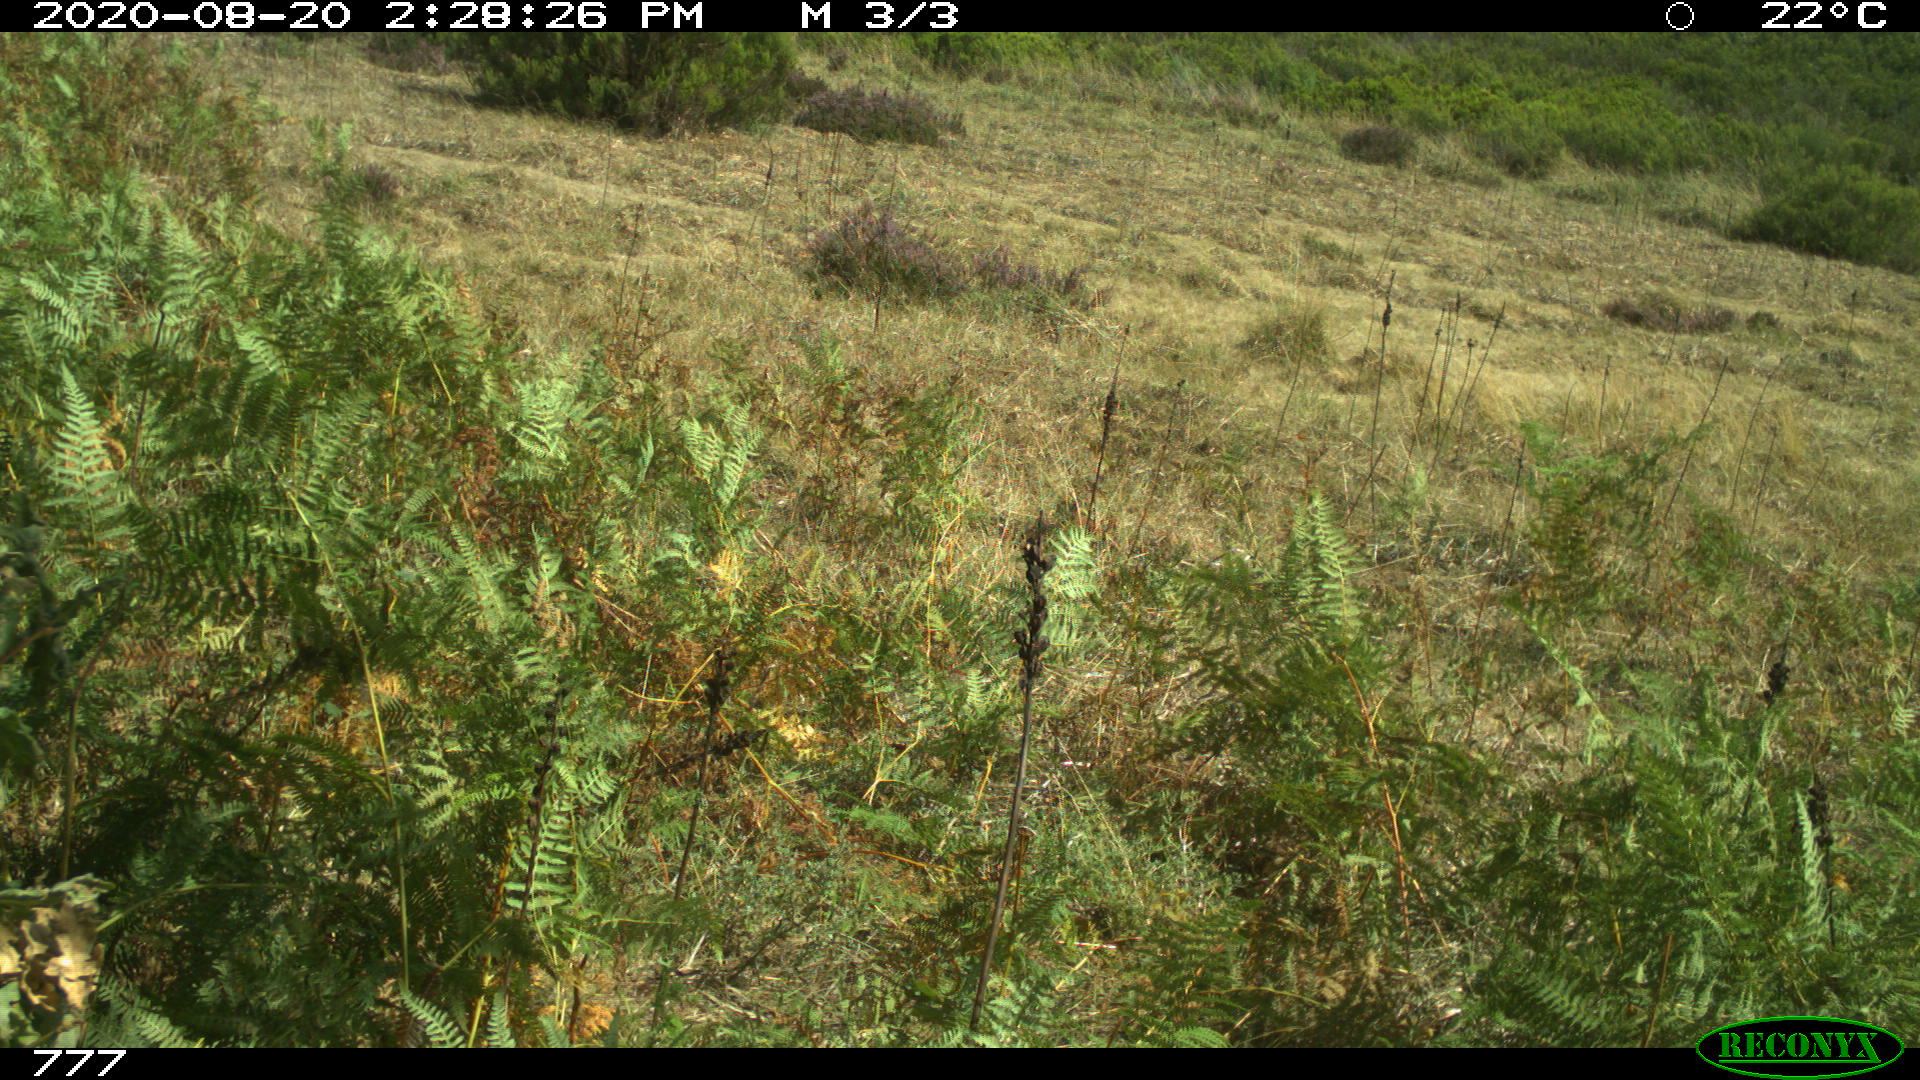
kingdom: Animalia
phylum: Chordata
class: Mammalia
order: Artiodactyla
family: Suidae
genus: Sus
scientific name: Sus scrofa
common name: Wild boar
